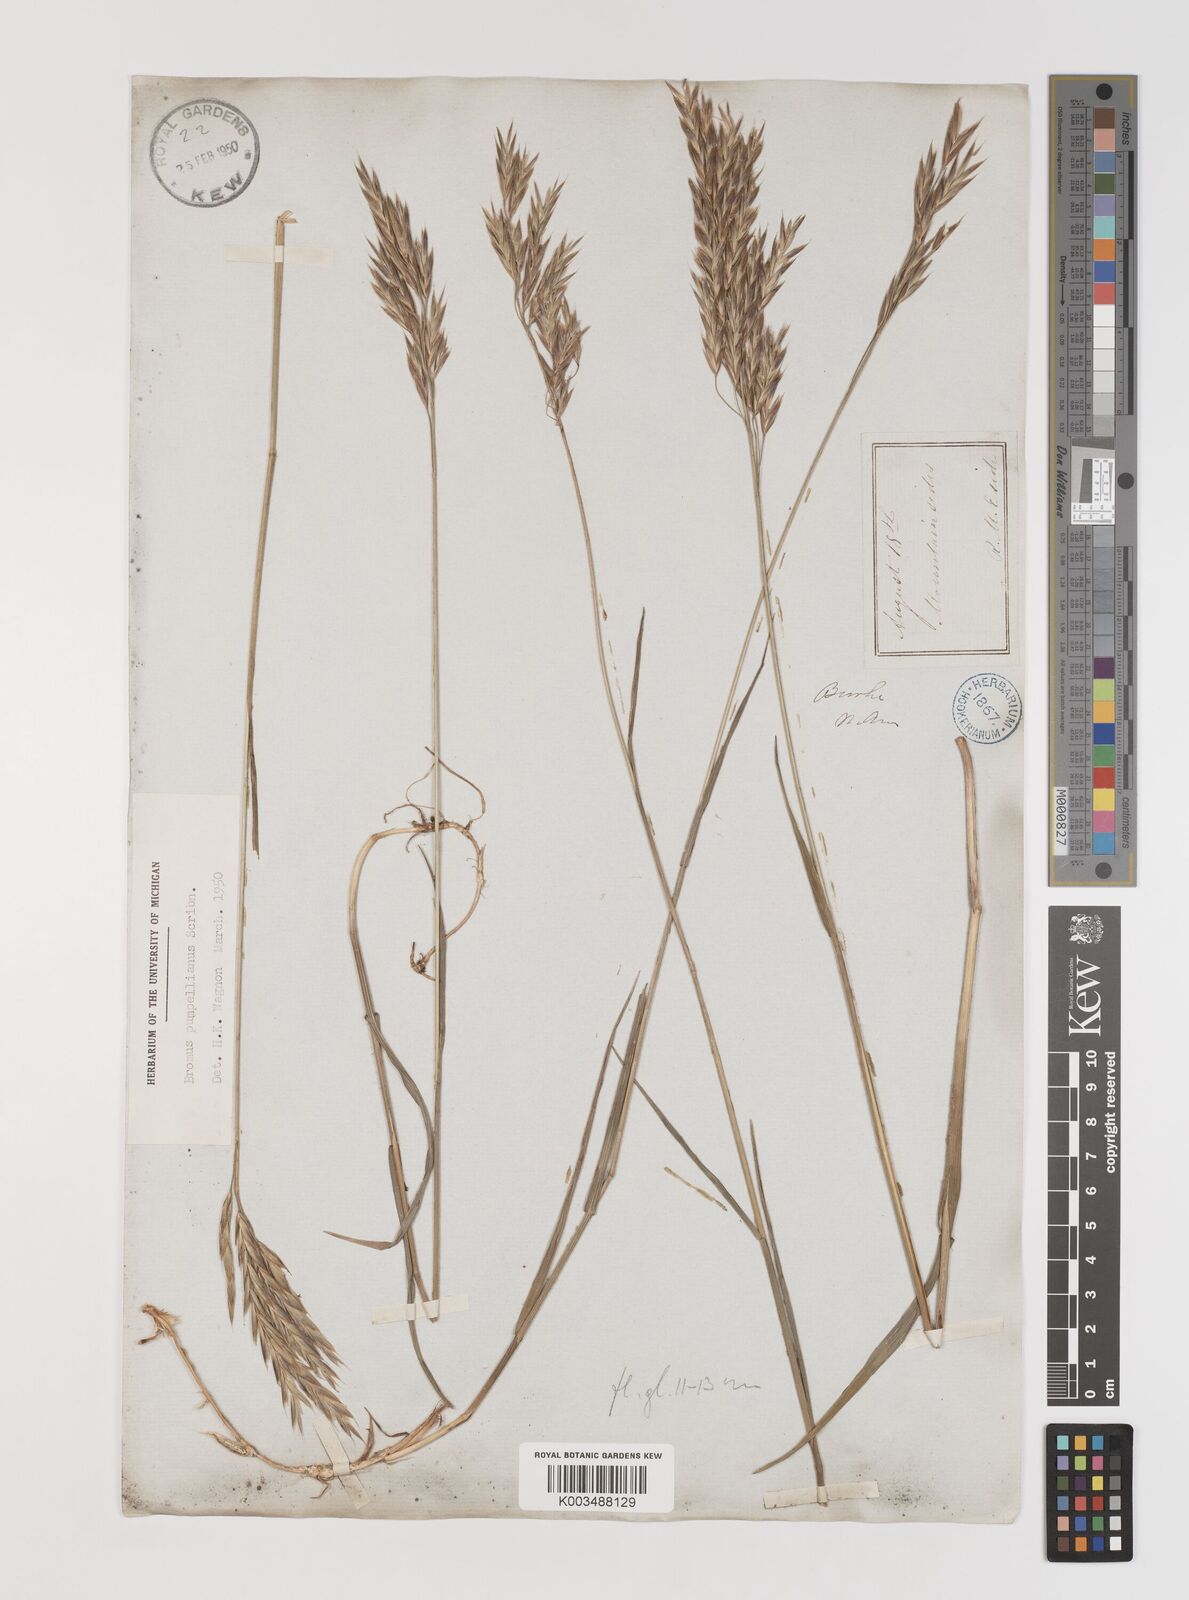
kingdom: Plantae
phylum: Tracheophyta
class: Liliopsida
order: Poales
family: Poaceae
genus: Bromus
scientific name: Bromus pumpellianus
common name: Pumpelly's brome
